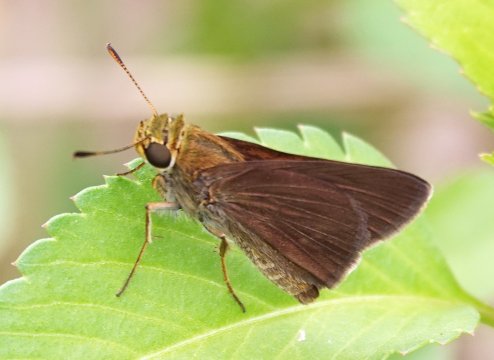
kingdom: Animalia
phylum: Arthropoda
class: Insecta
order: Lepidoptera
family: Hesperiidae
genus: Euphyes
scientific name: Euphyes vestris
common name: Dun Skipper
